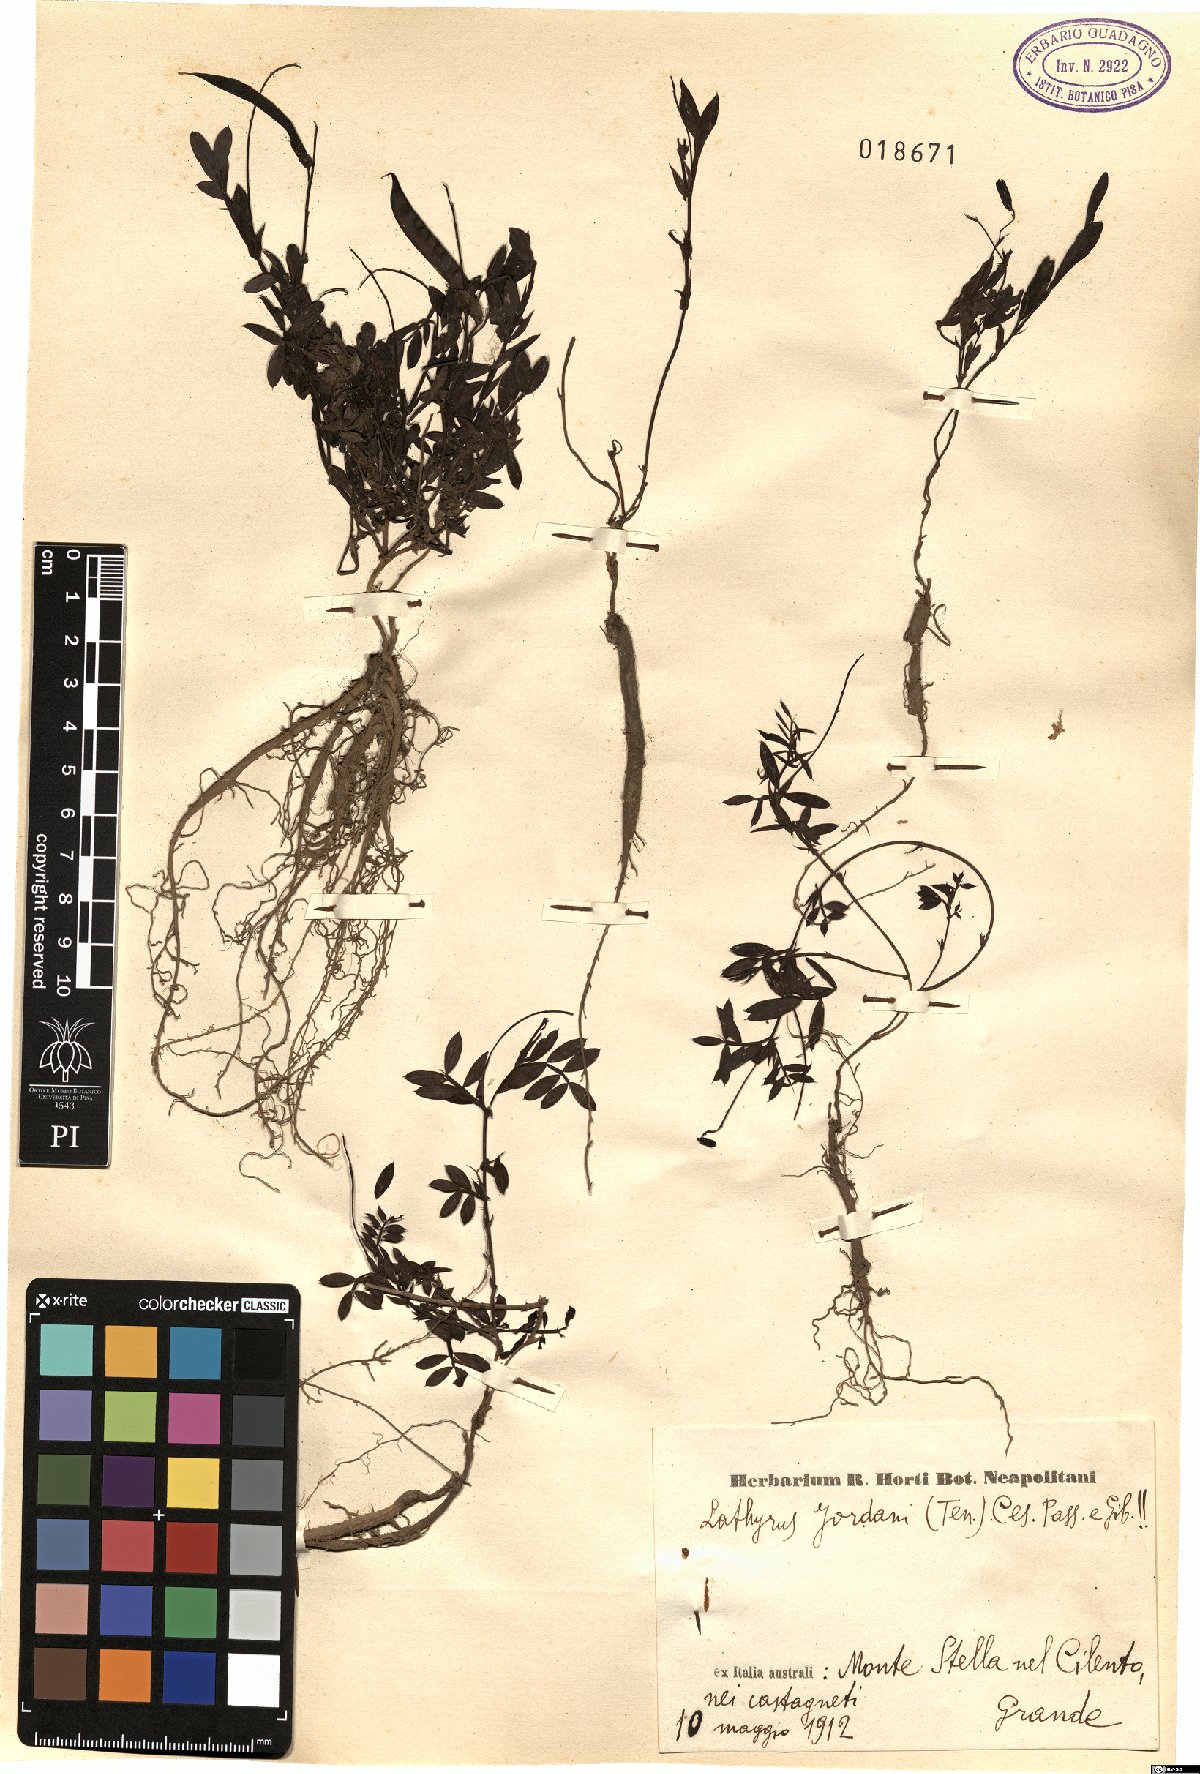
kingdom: Plantae
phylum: Tracheophyta
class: Magnoliopsida
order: Fabales
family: Fabaceae
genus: Lathyrus
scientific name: Lathyrus niger
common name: Black pea
